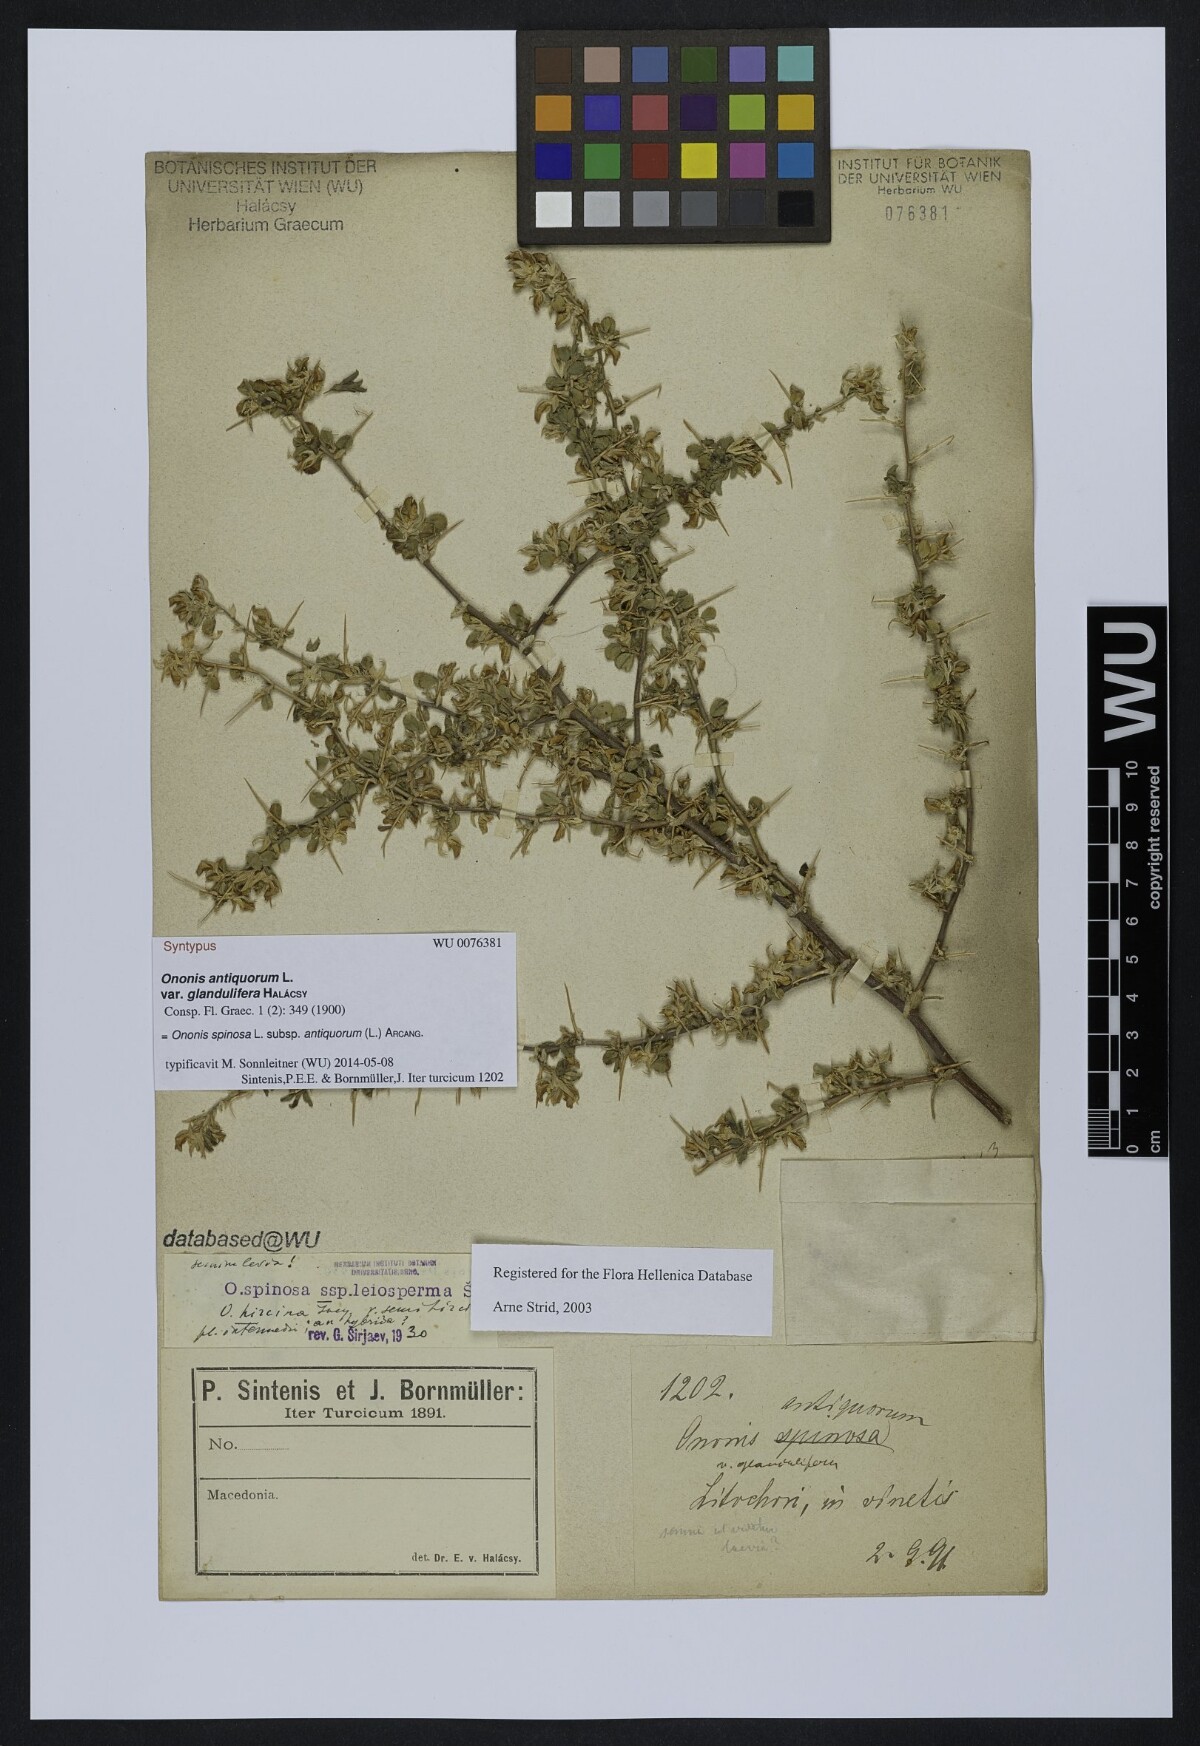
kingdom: Plantae
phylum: Tracheophyta
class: Magnoliopsida
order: Fabales
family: Fabaceae
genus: Ononis
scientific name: Ononis spinosa
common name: Spiny restharrow
